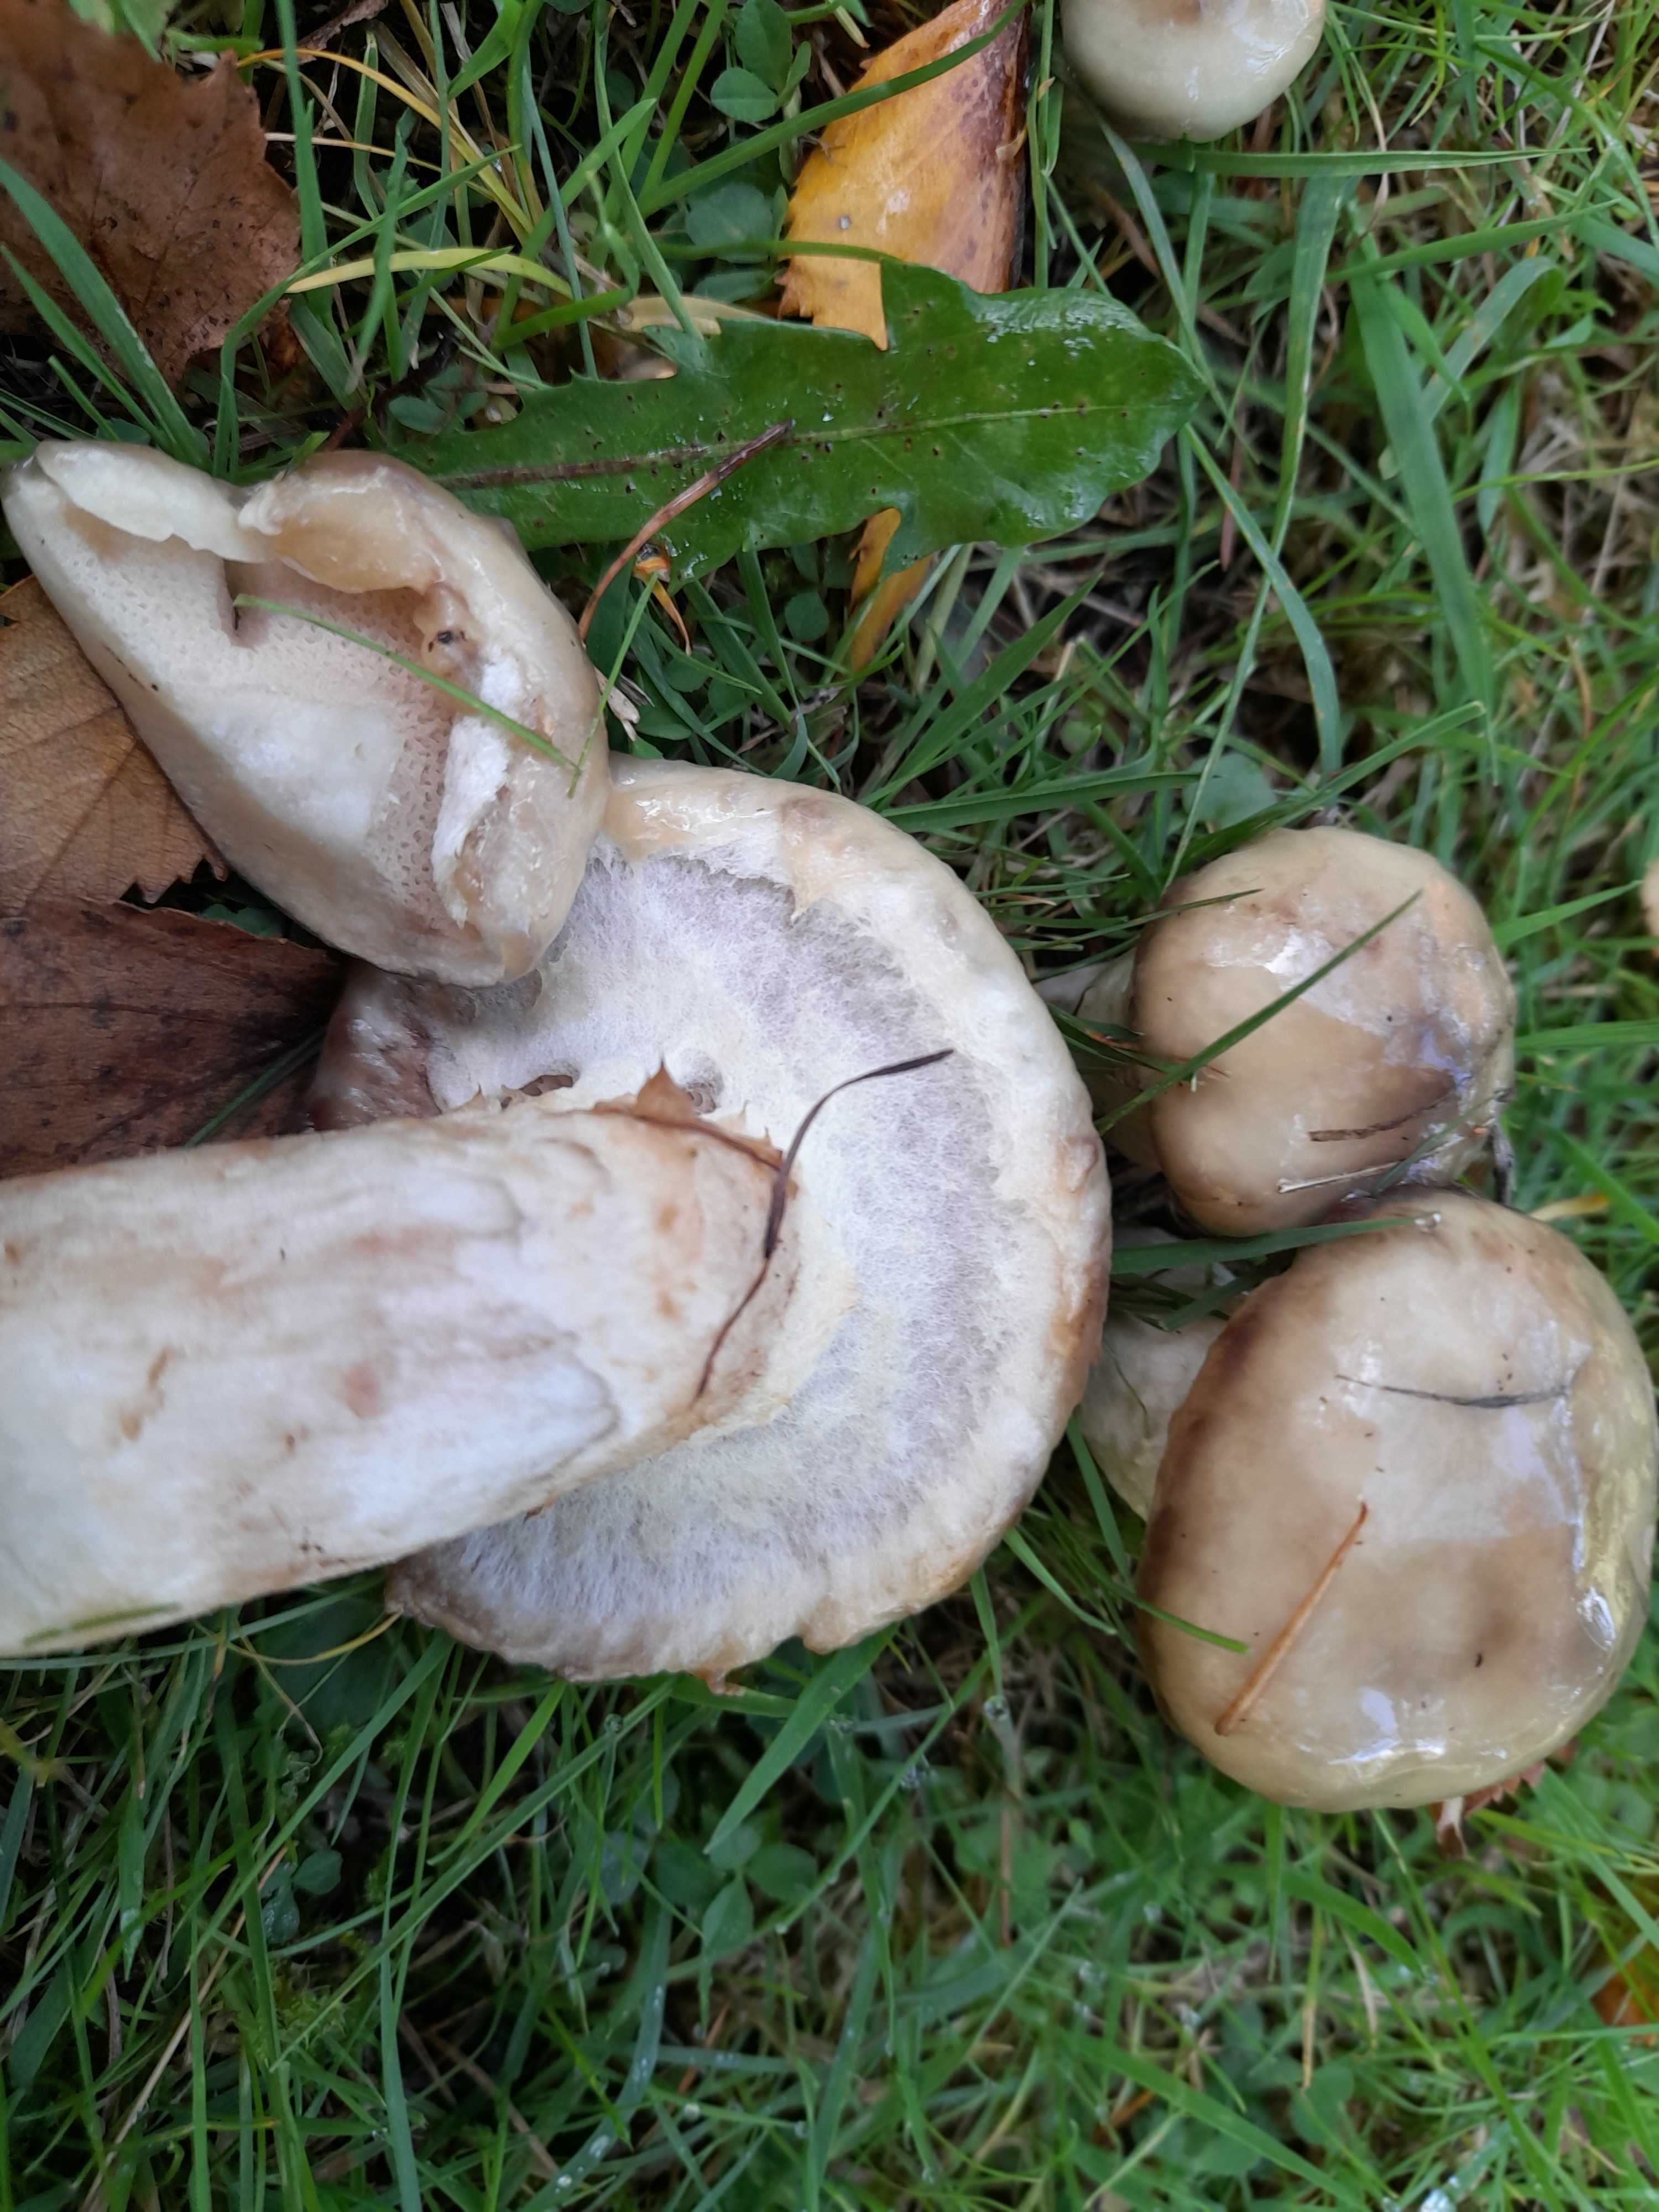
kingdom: Fungi
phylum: Basidiomycota
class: Agaricomycetes
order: Boletales
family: Suillaceae
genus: Suillus
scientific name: Suillus viscidus
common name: olivengrå slimrørhat
